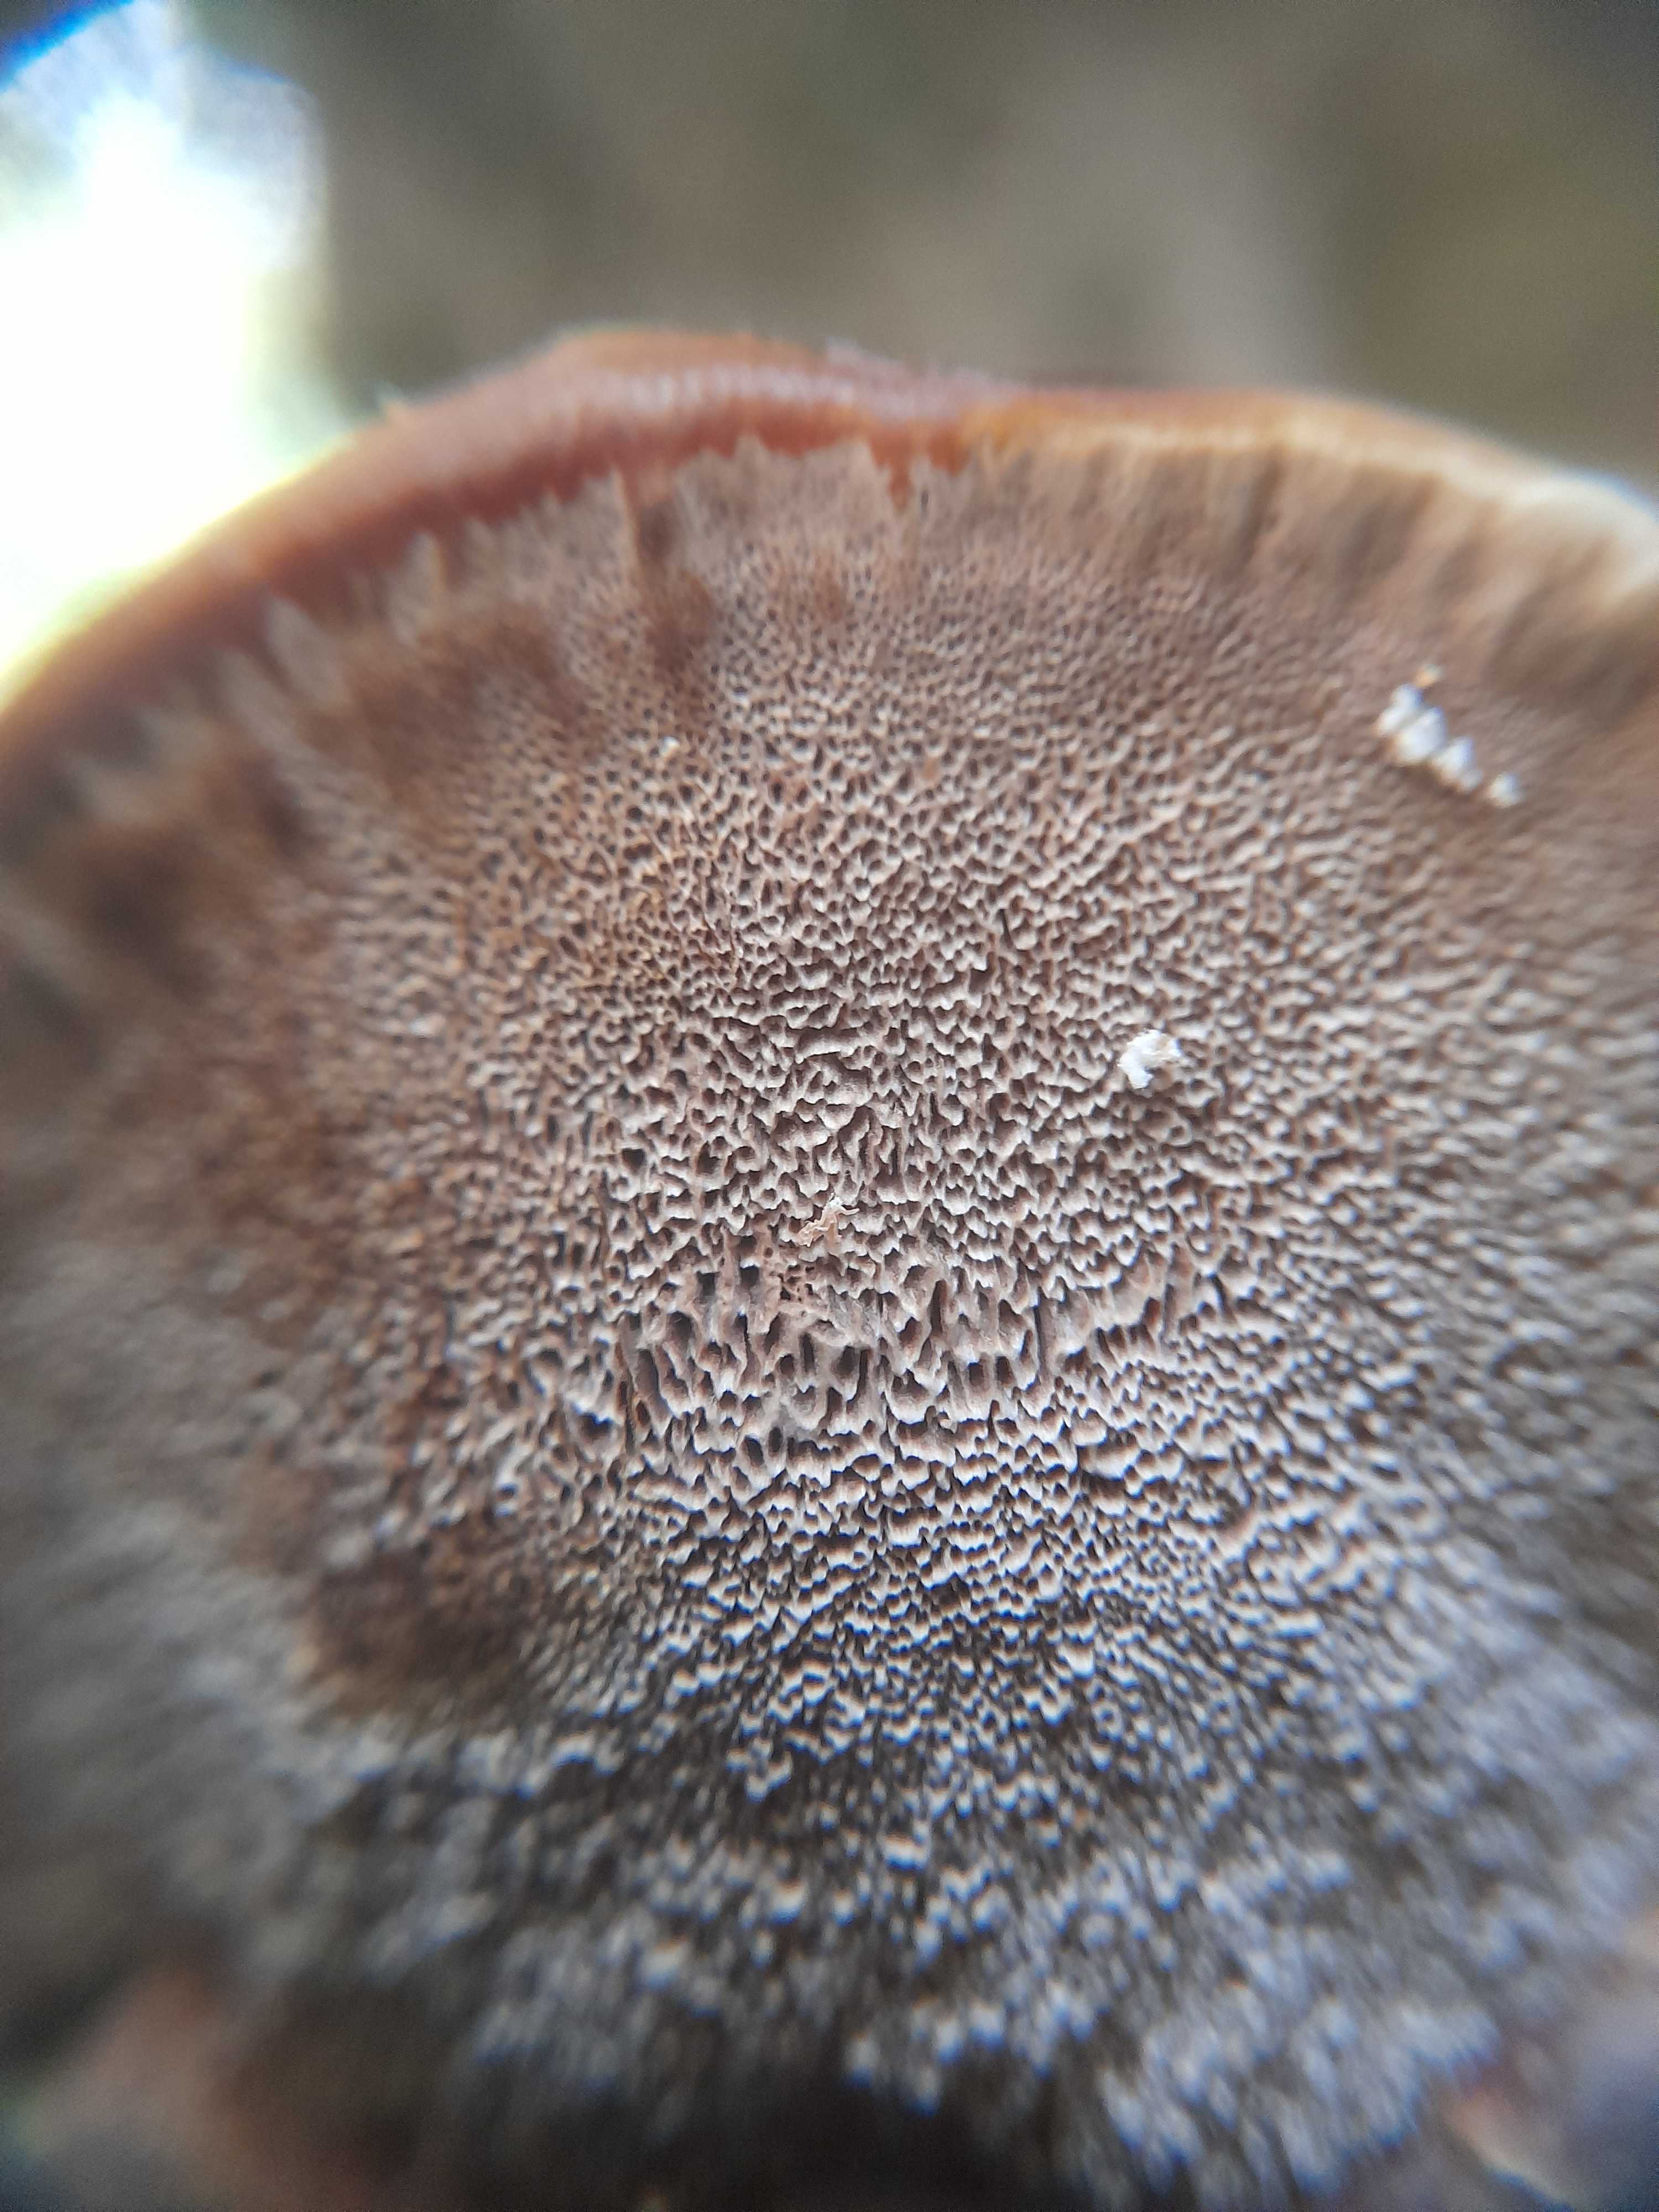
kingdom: Fungi
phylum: Basidiomycota
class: Agaricomycetes
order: Hymenochaetales
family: Hymenochaetaceae
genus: Xanthoporia
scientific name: Xanthoporia radiata
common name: elle-spejlporesvamp
